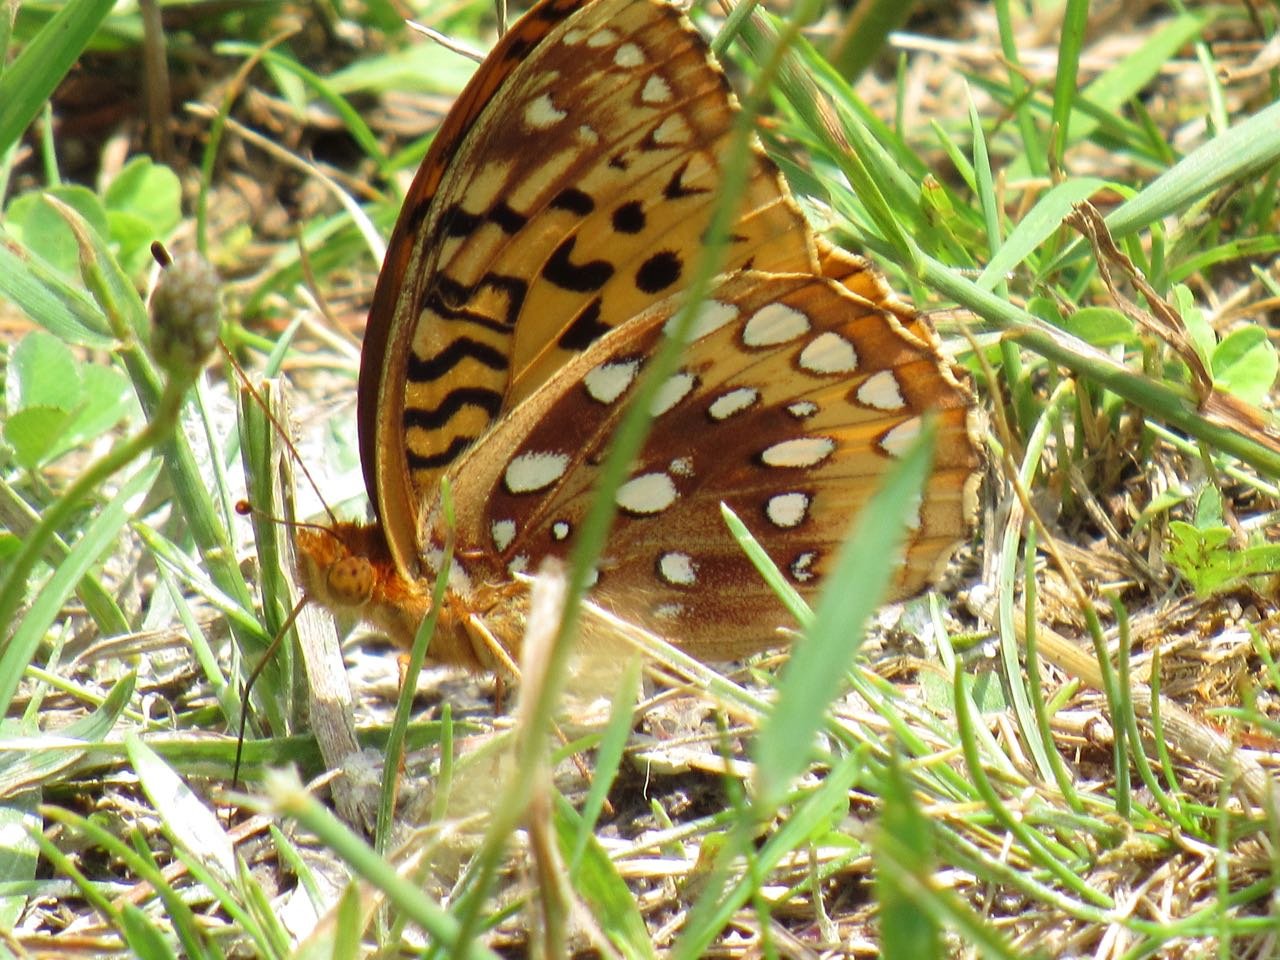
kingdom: Animalia
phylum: Arthropoda
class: Insecta
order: Lepidoptera
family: Nymphalidae
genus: Speyeria
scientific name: Speyeria cybele
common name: Great Spangled Fritillary
